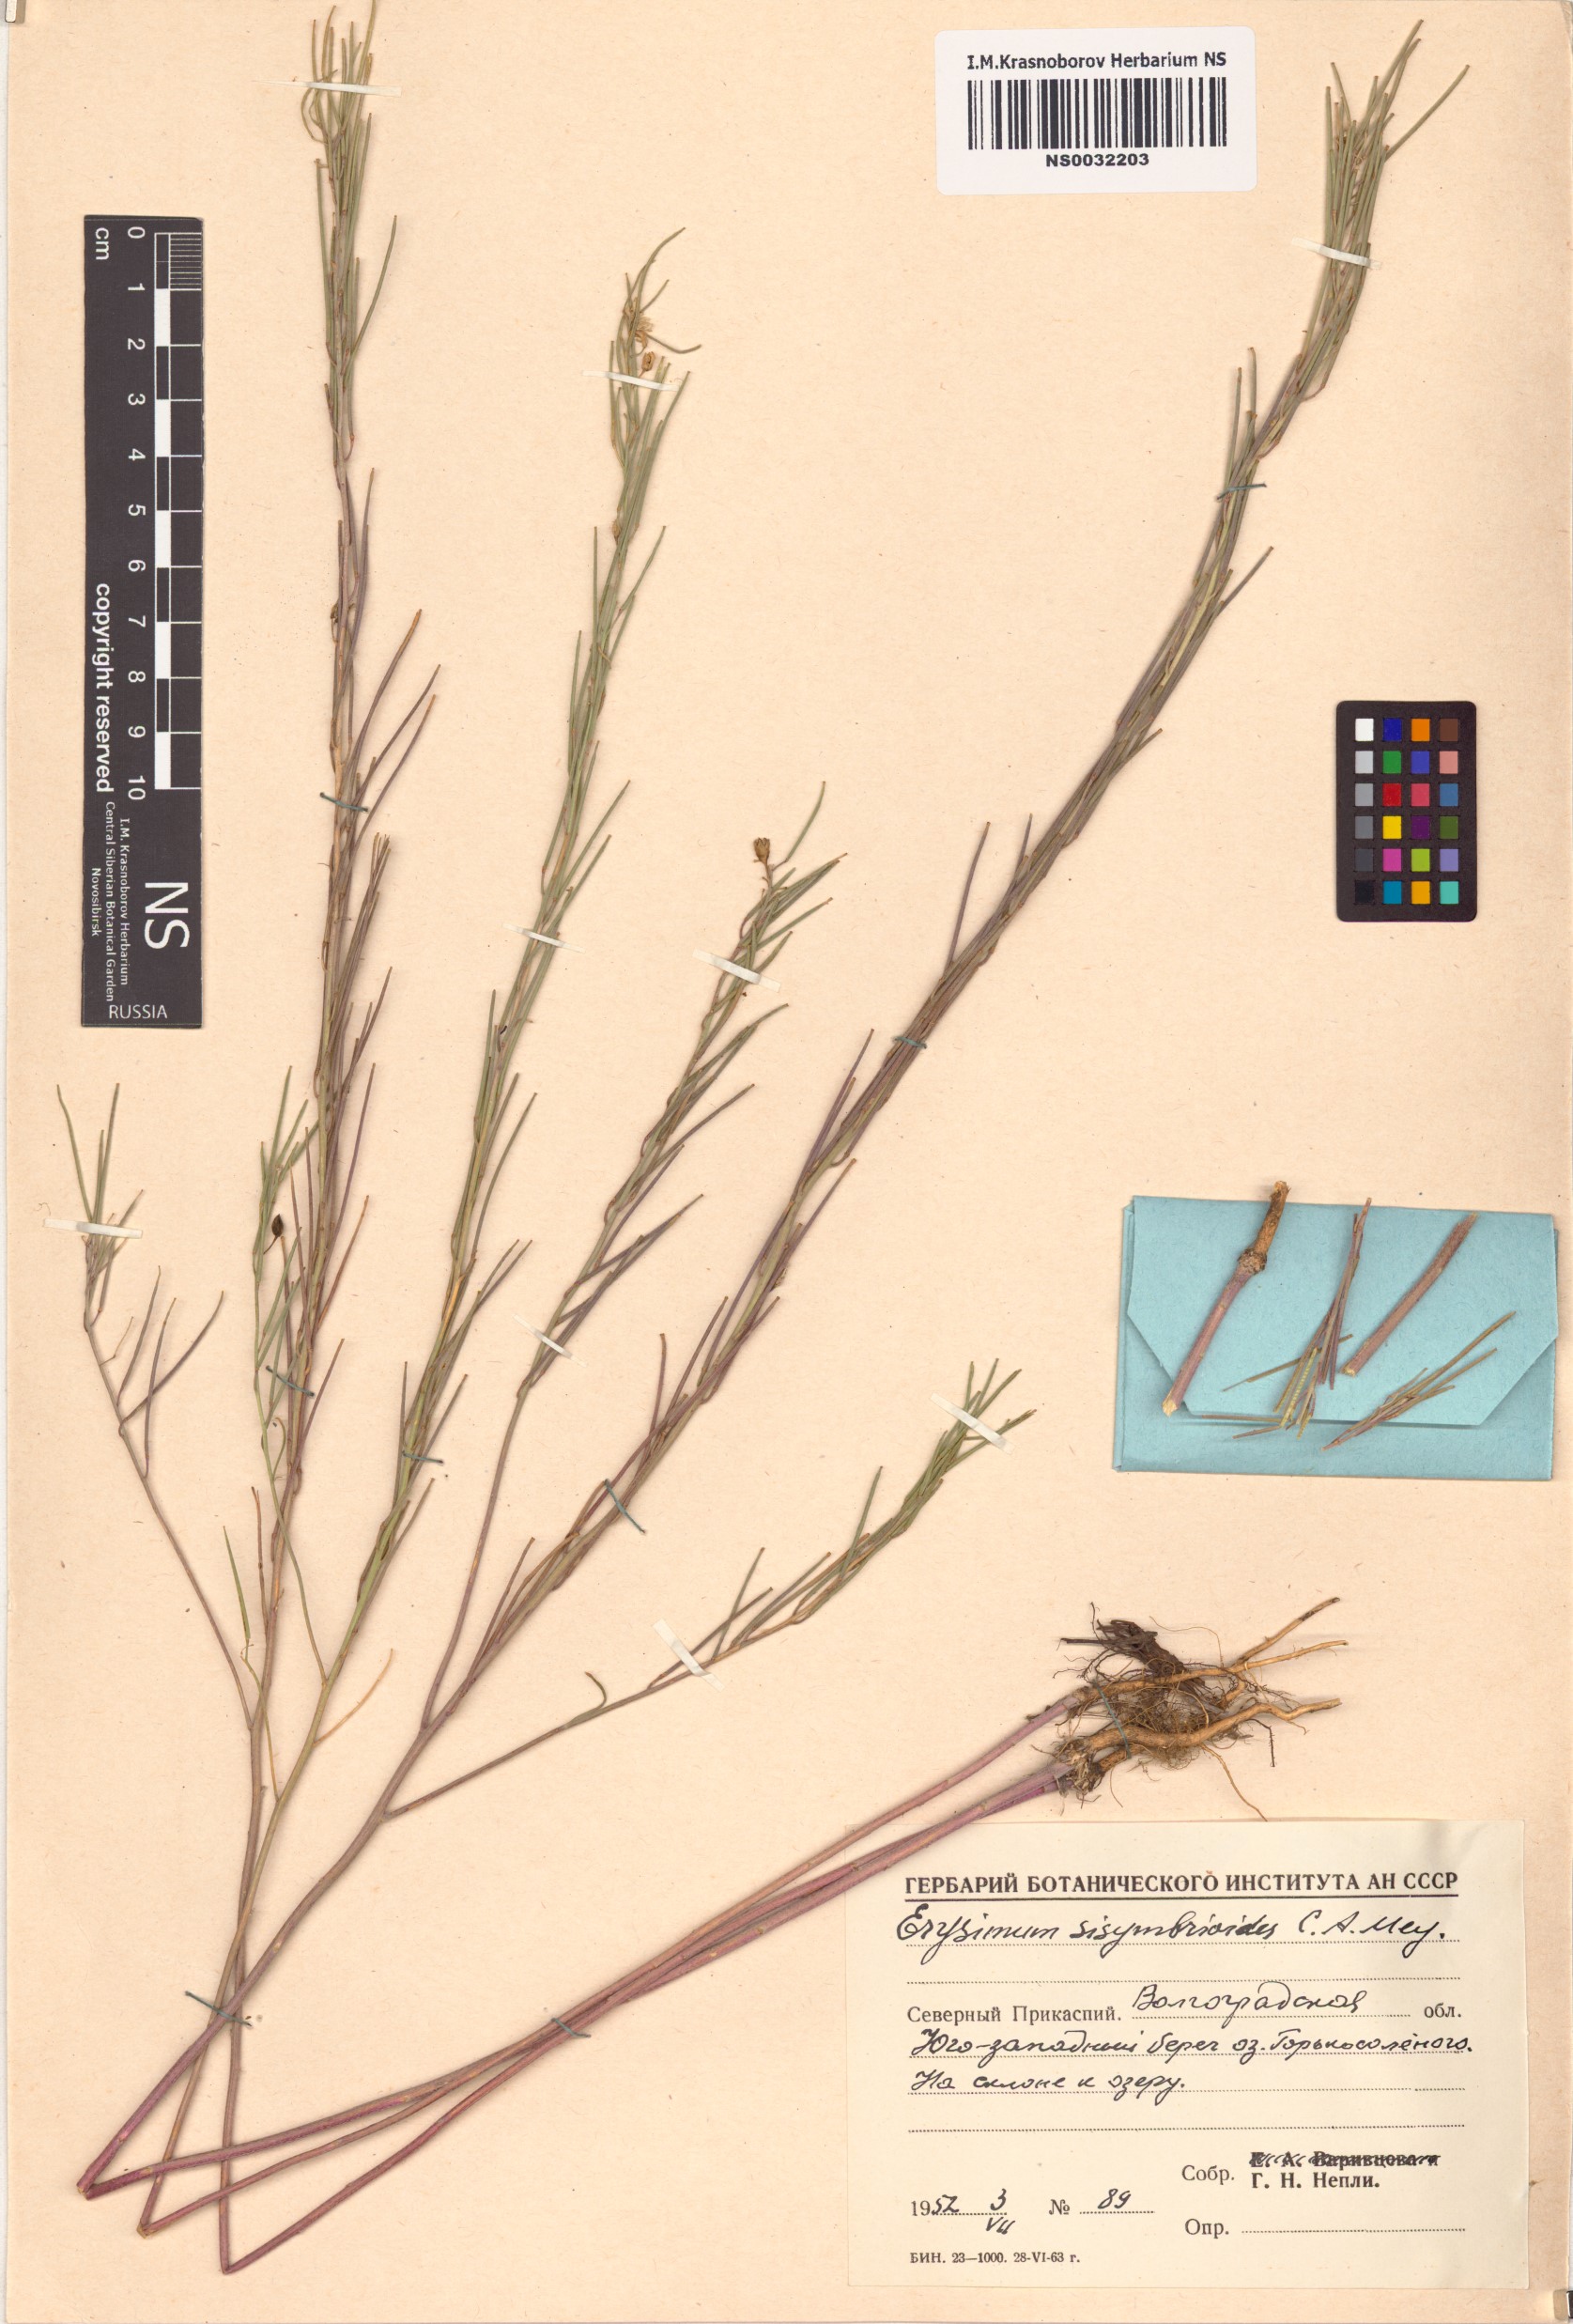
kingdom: Plantae
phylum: Tracheophyta
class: Magnoliopsida
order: Brassicales
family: Brassicaceae
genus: Erysimum
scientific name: Erysimum sisymbrioides
